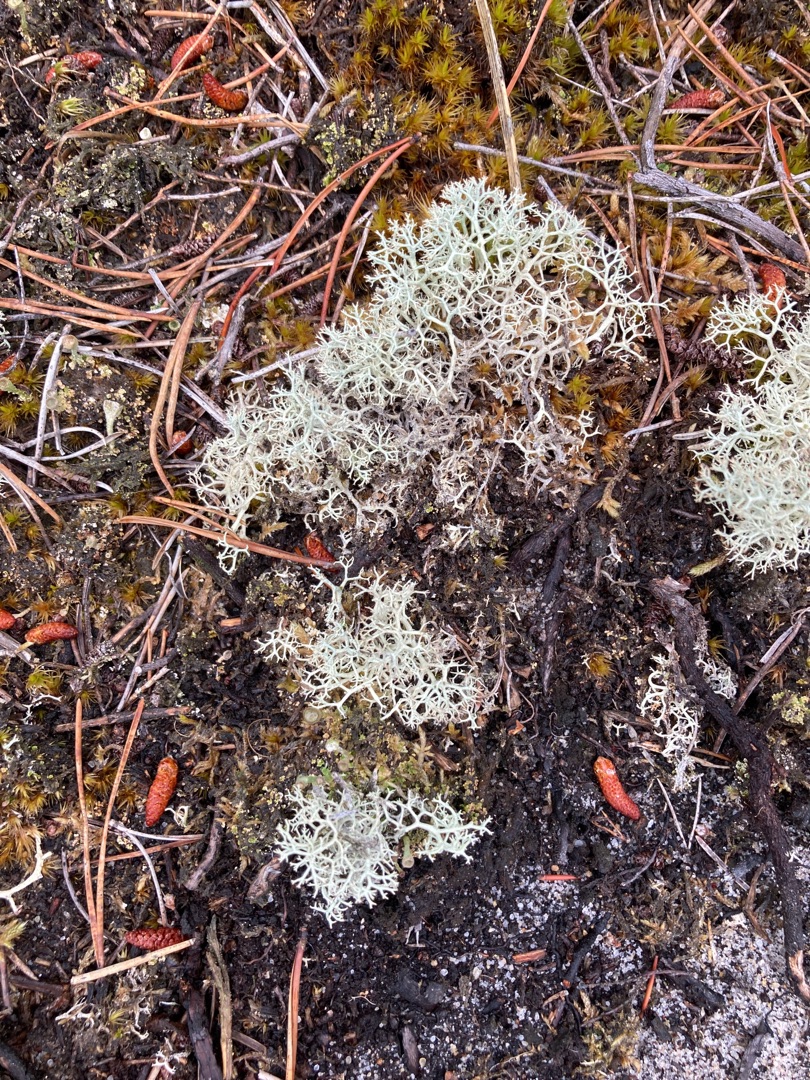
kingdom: Fungi
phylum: Ascomycota
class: Lecanoromycetes
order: Lecanorales
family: Cladoniaceae
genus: Cladonia
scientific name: Cladonia portentosa
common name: Hede-rensdyrlav
